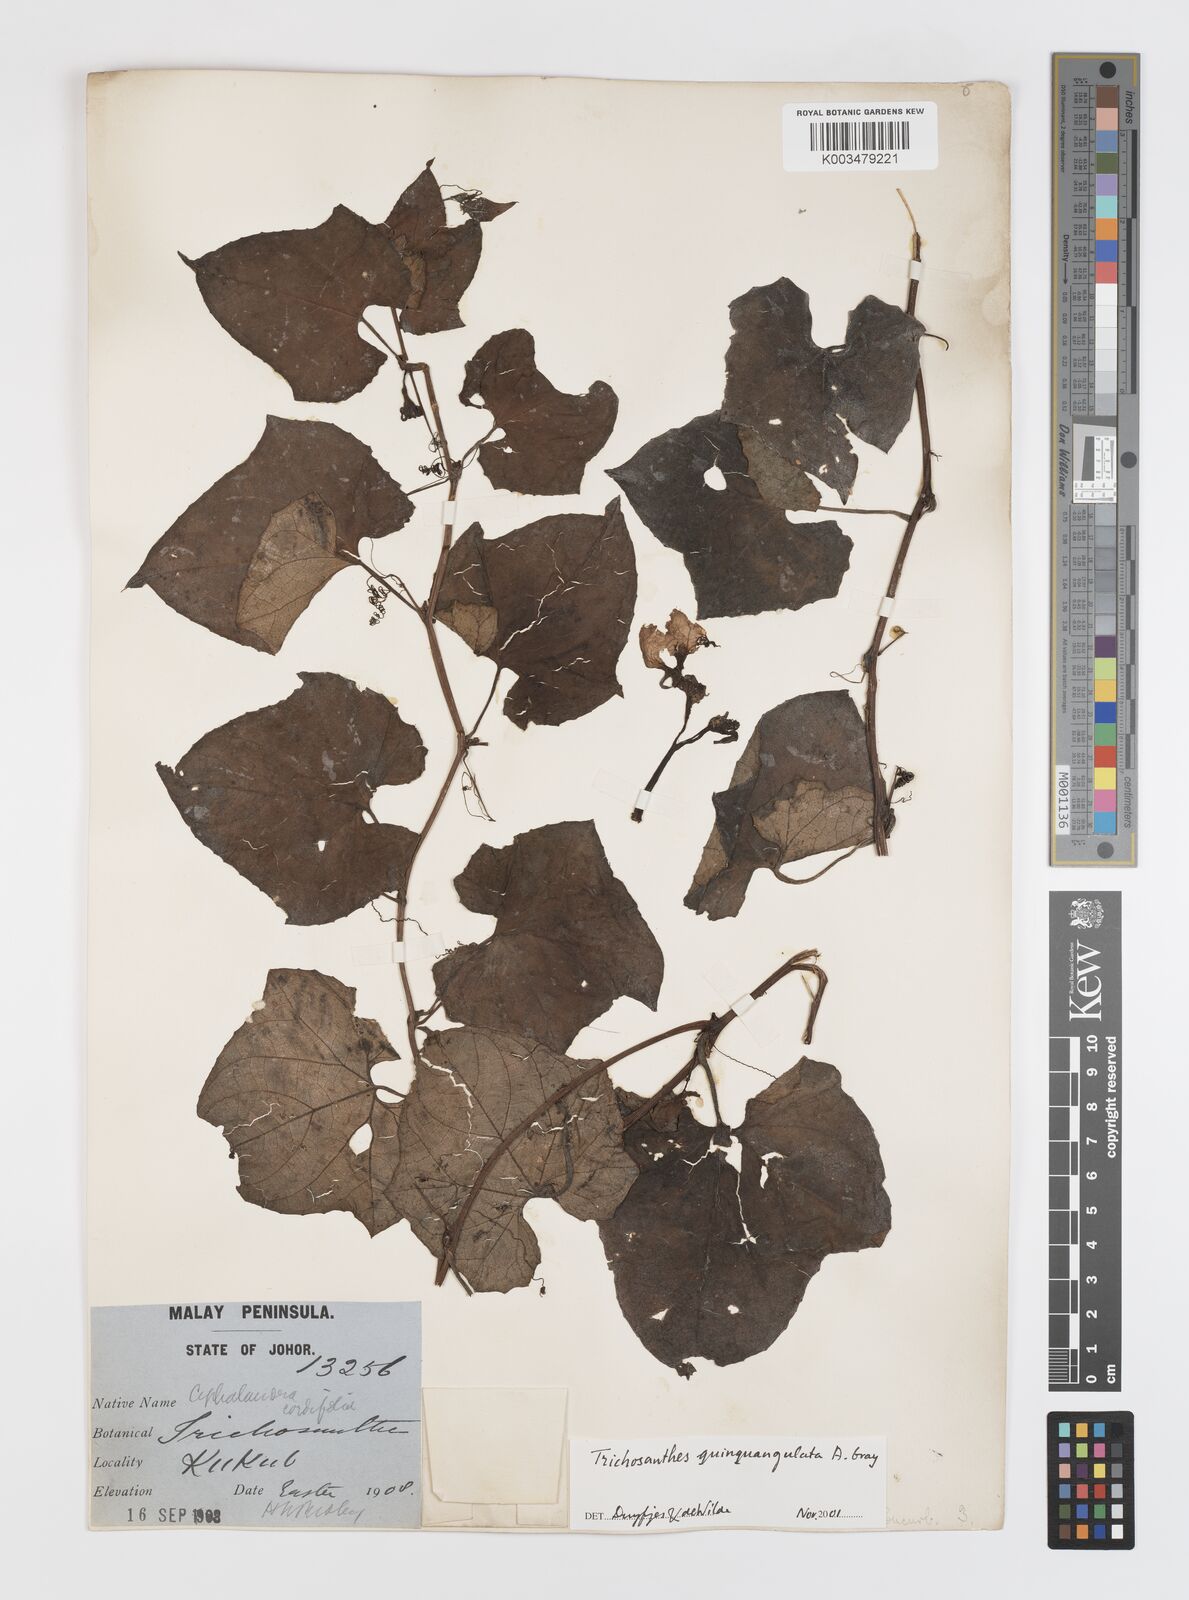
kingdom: Plantae
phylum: Tracheophyta
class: Magnoliopsida
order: Cucurbitales
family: Cucurbitaceae
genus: Trichosanthes
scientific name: Trichosanthes quinquangulata
